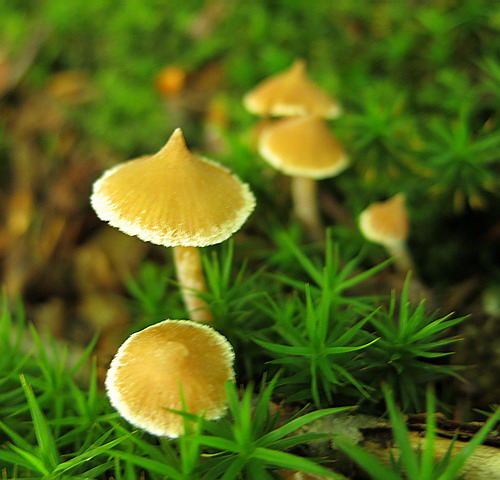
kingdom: Fungi
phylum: Basidiomycota
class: Agaricomycetes
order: Agaricales
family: Cortinariaceae
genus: Cortinarius
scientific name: Cortinarius acutus
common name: spids slørhat
